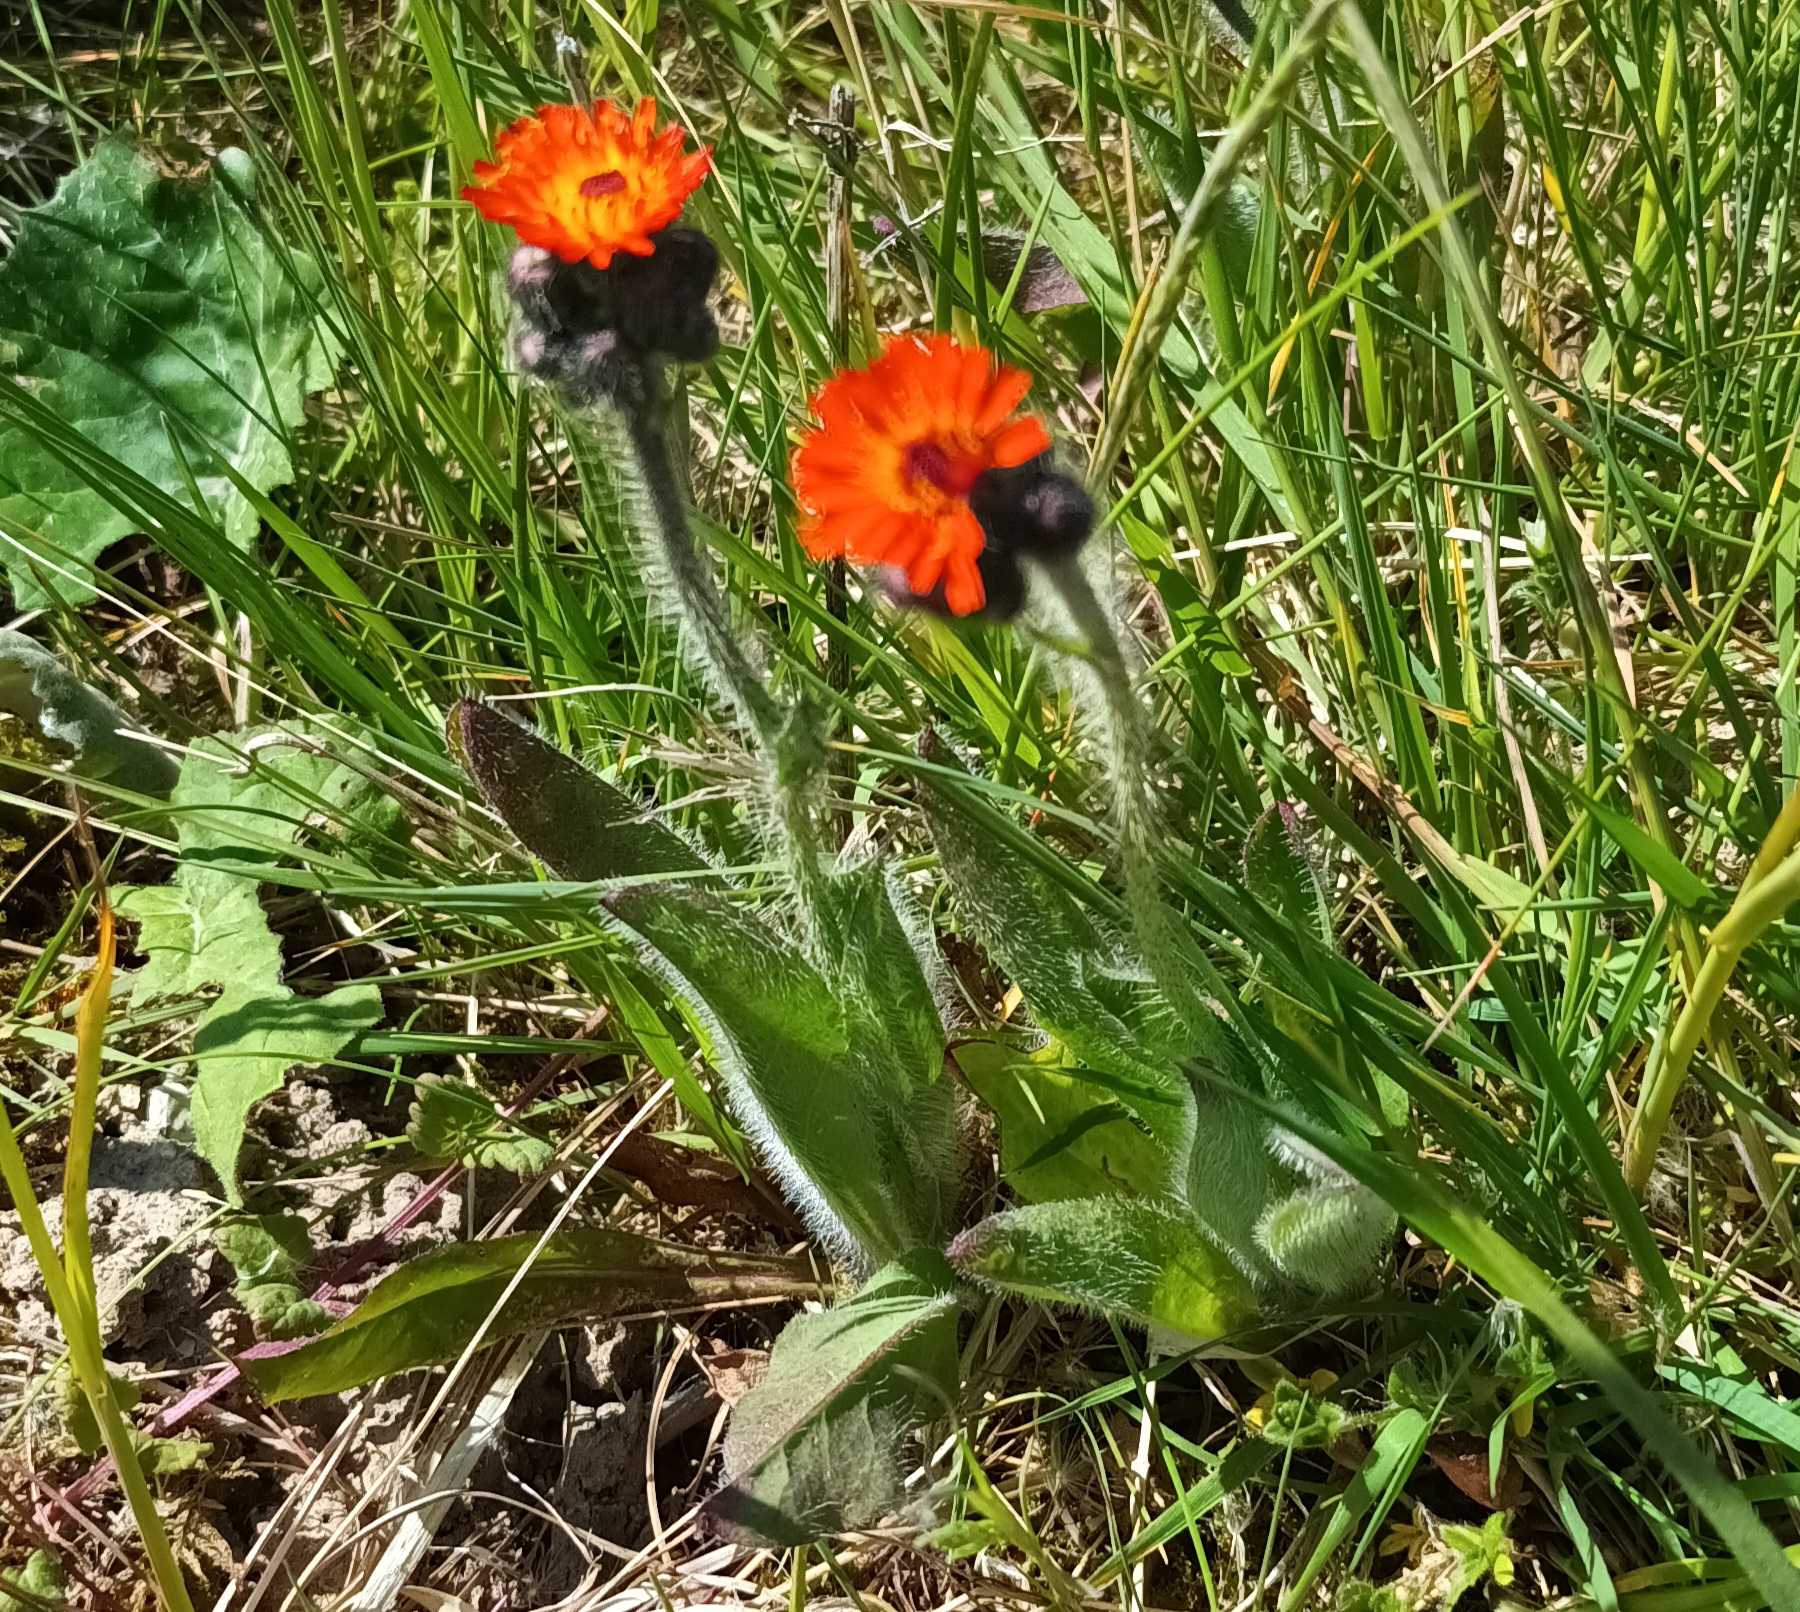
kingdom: Plantae
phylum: Tracheophyta
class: Magnoliopsida
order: Asterales
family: Asteraceae
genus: Pilosella
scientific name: Pilosella aurantiaca
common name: Pomerans-høgeurt
